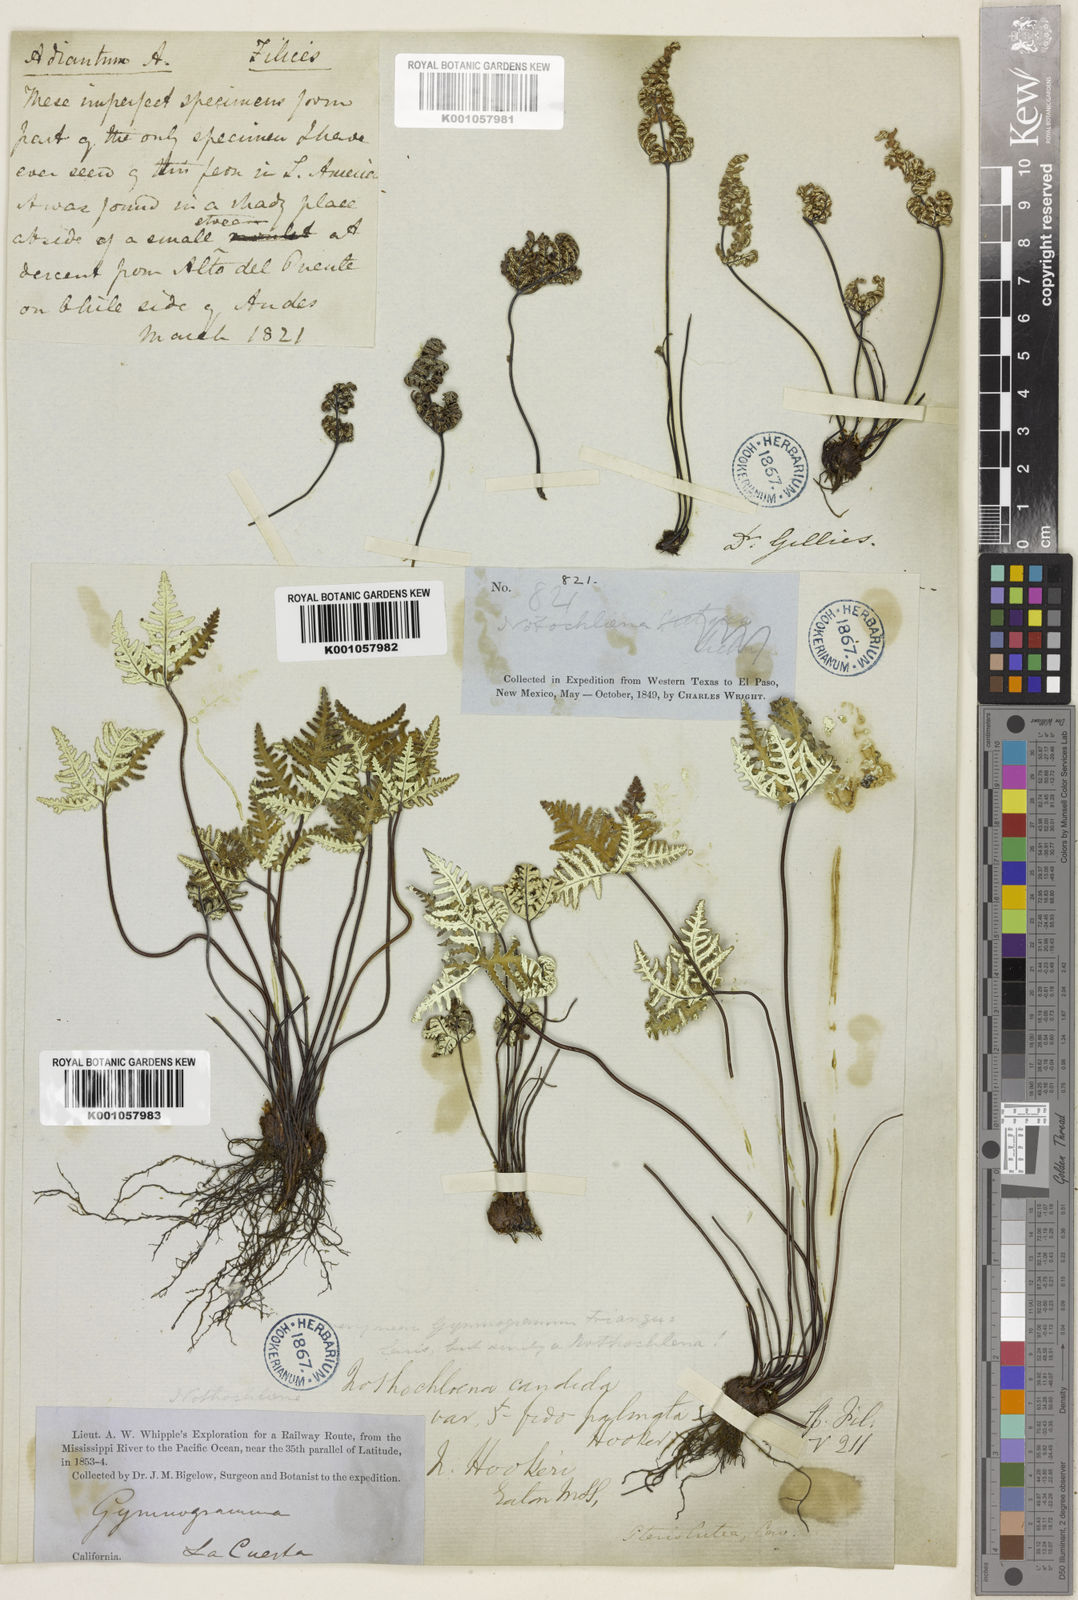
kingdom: Plantae
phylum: Tracheophyta
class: Polypodiopsida
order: Polypodiales
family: Pteridaceae
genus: Notholaena
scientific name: Notholaena standleyi
